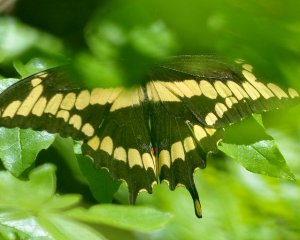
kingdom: Animalia
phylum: Arthropoda
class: Insecta
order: Lepidoptera
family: Papilionidae
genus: Papilio
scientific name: Papilio cresphontes
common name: Eastern Giant Swallowtail
